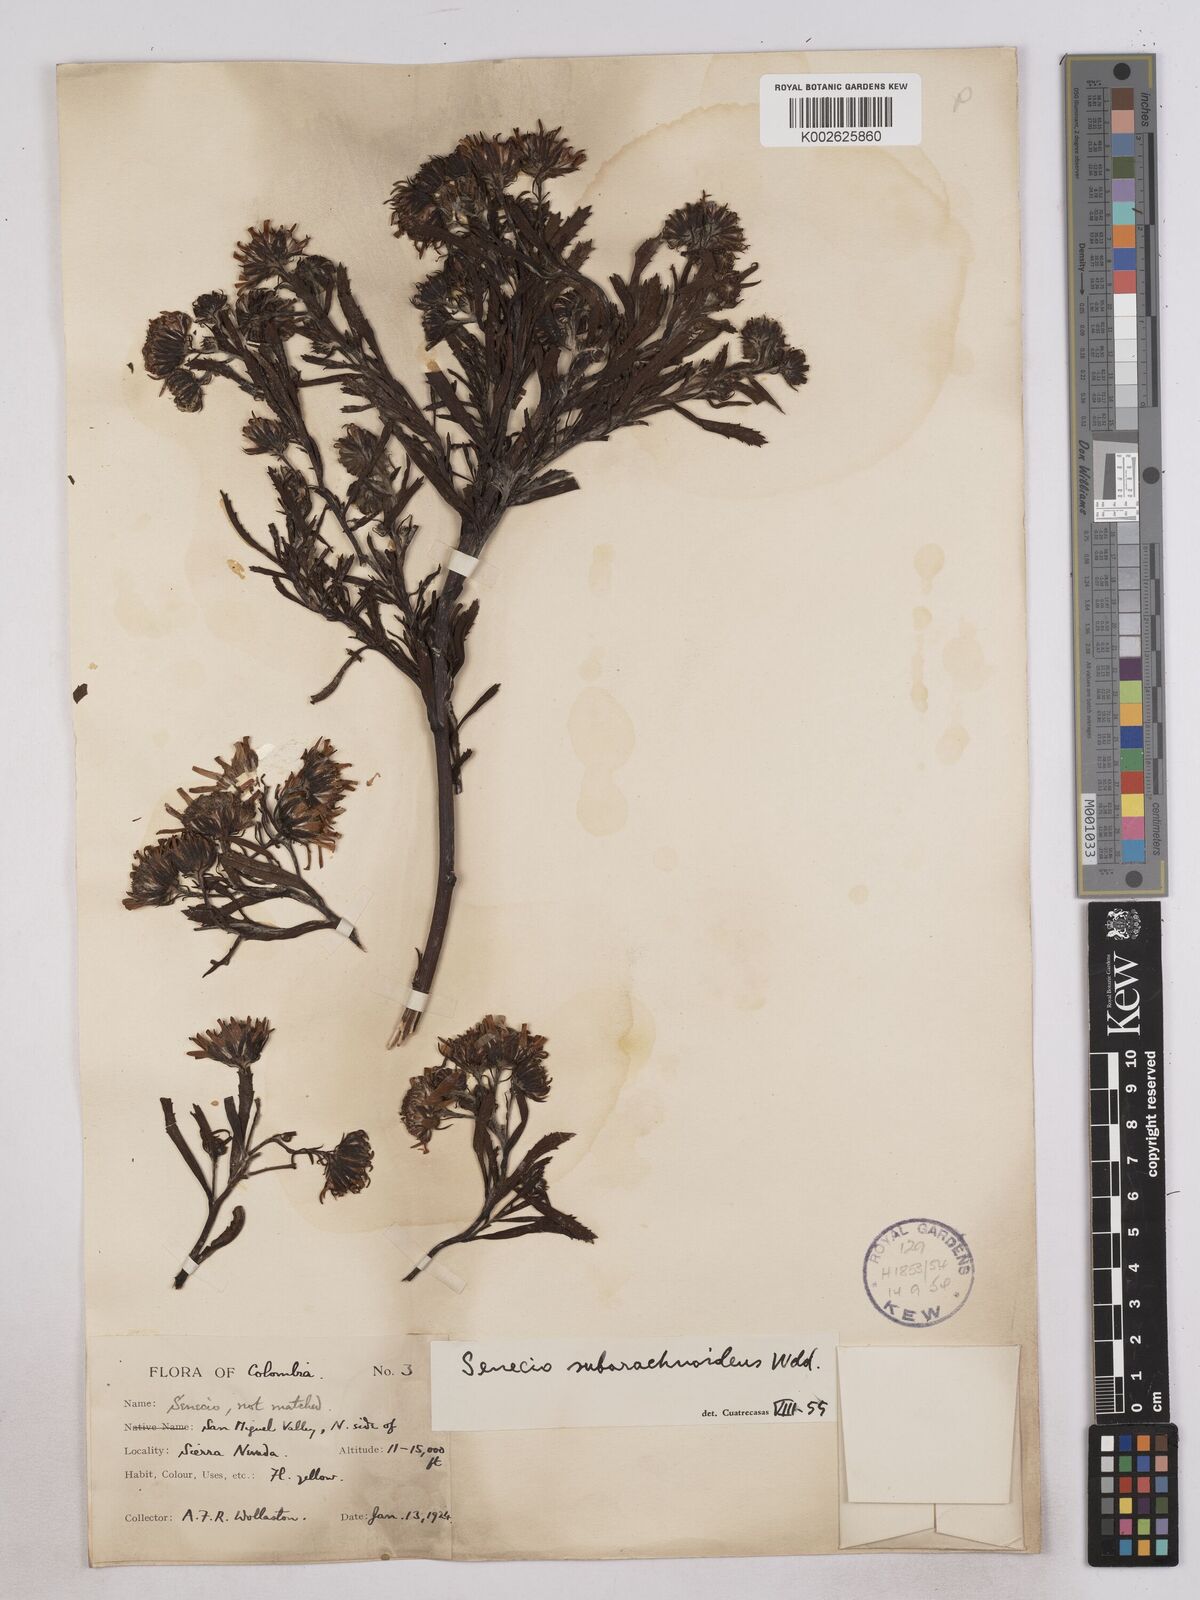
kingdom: Plantae
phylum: Tracheophyta
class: Magnoliopsida
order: Asterales
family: Asteraceae
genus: Monticalia
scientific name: Monticalia
